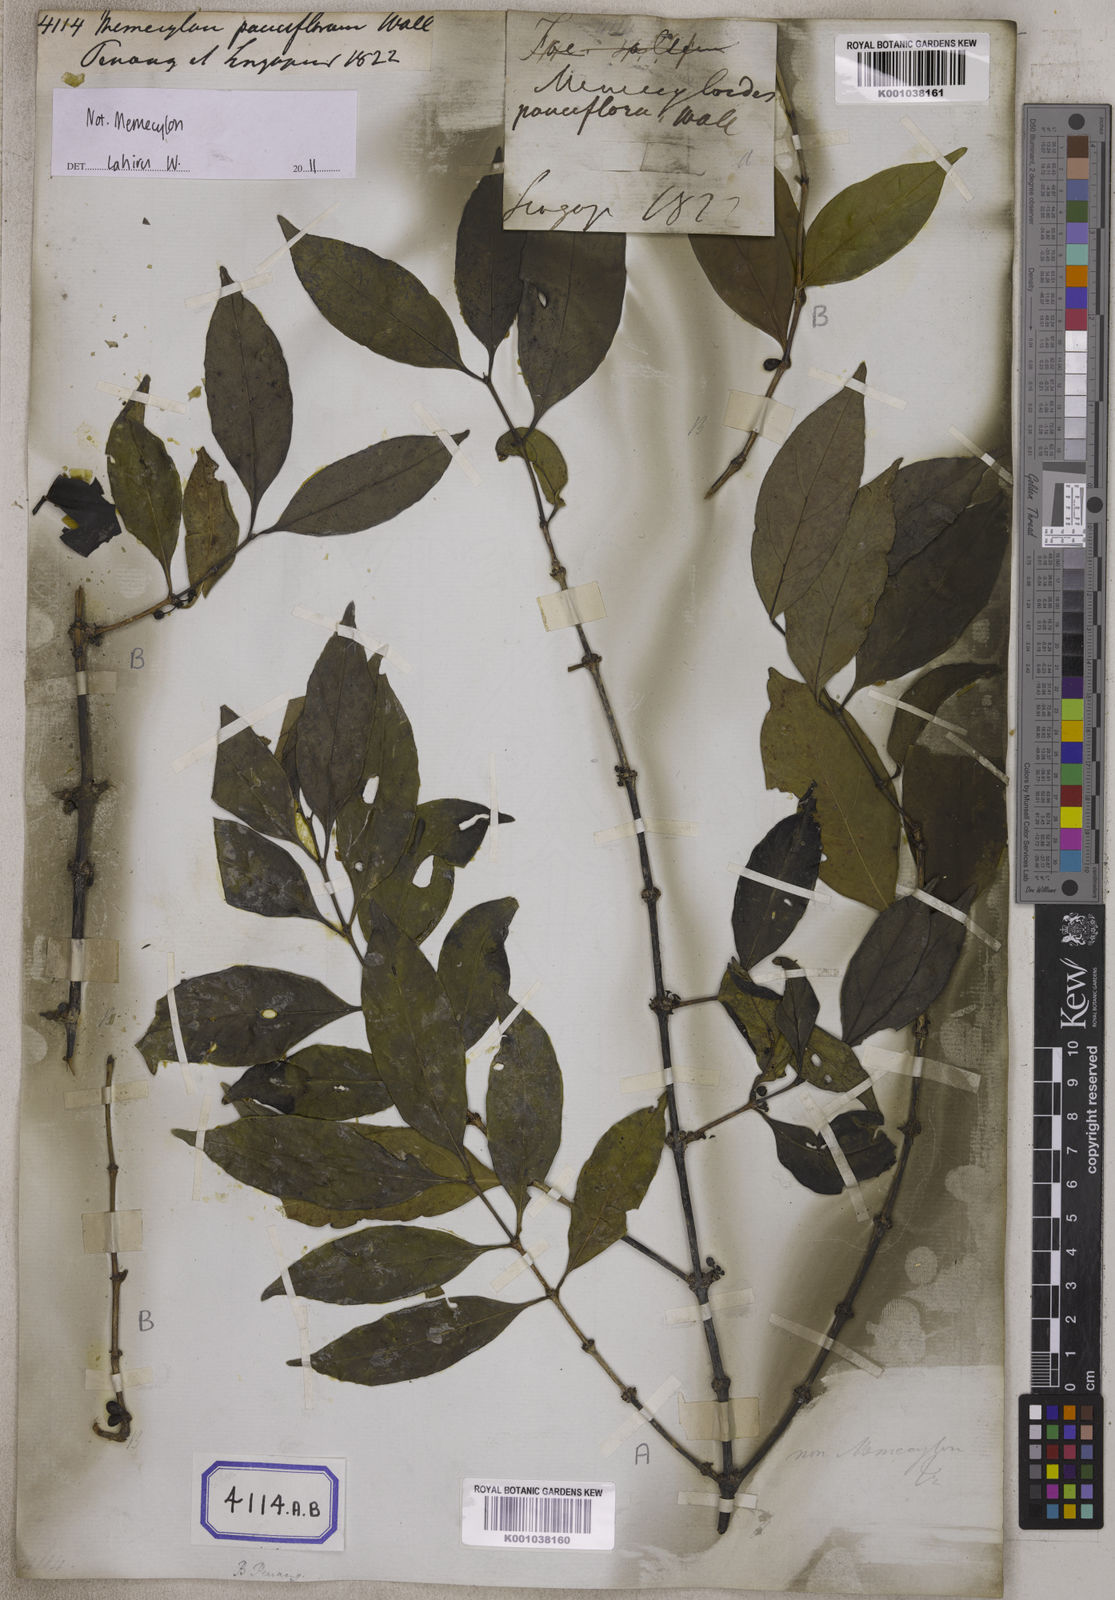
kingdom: Plantae
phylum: Tracheophyta
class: Magnoliopsida
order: Myrtales
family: Melastomataceae
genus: Memecylon
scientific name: Memecylon
